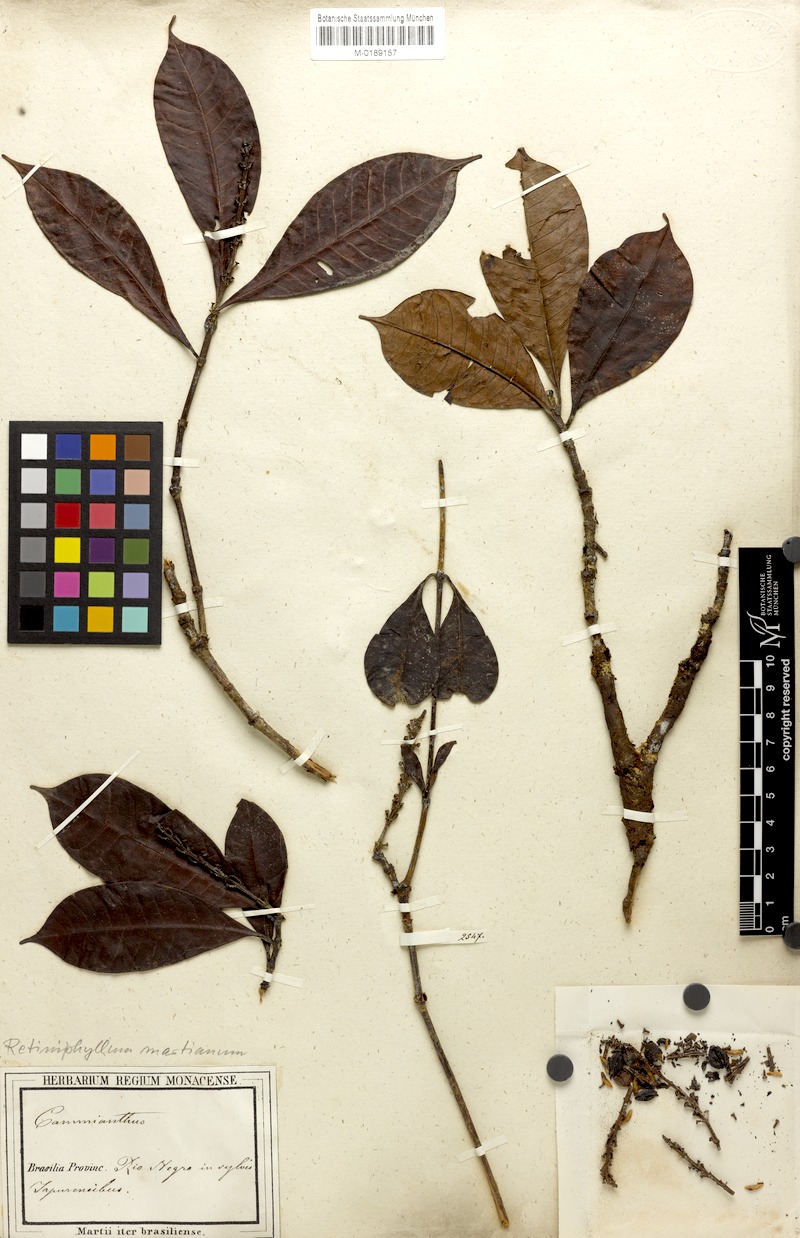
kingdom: Plantae
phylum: Tracheophyta
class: Magnoliopsida
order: Gentianales
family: Rubiaceae
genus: Retiniphyllum
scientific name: Retiniphyllum concolor
